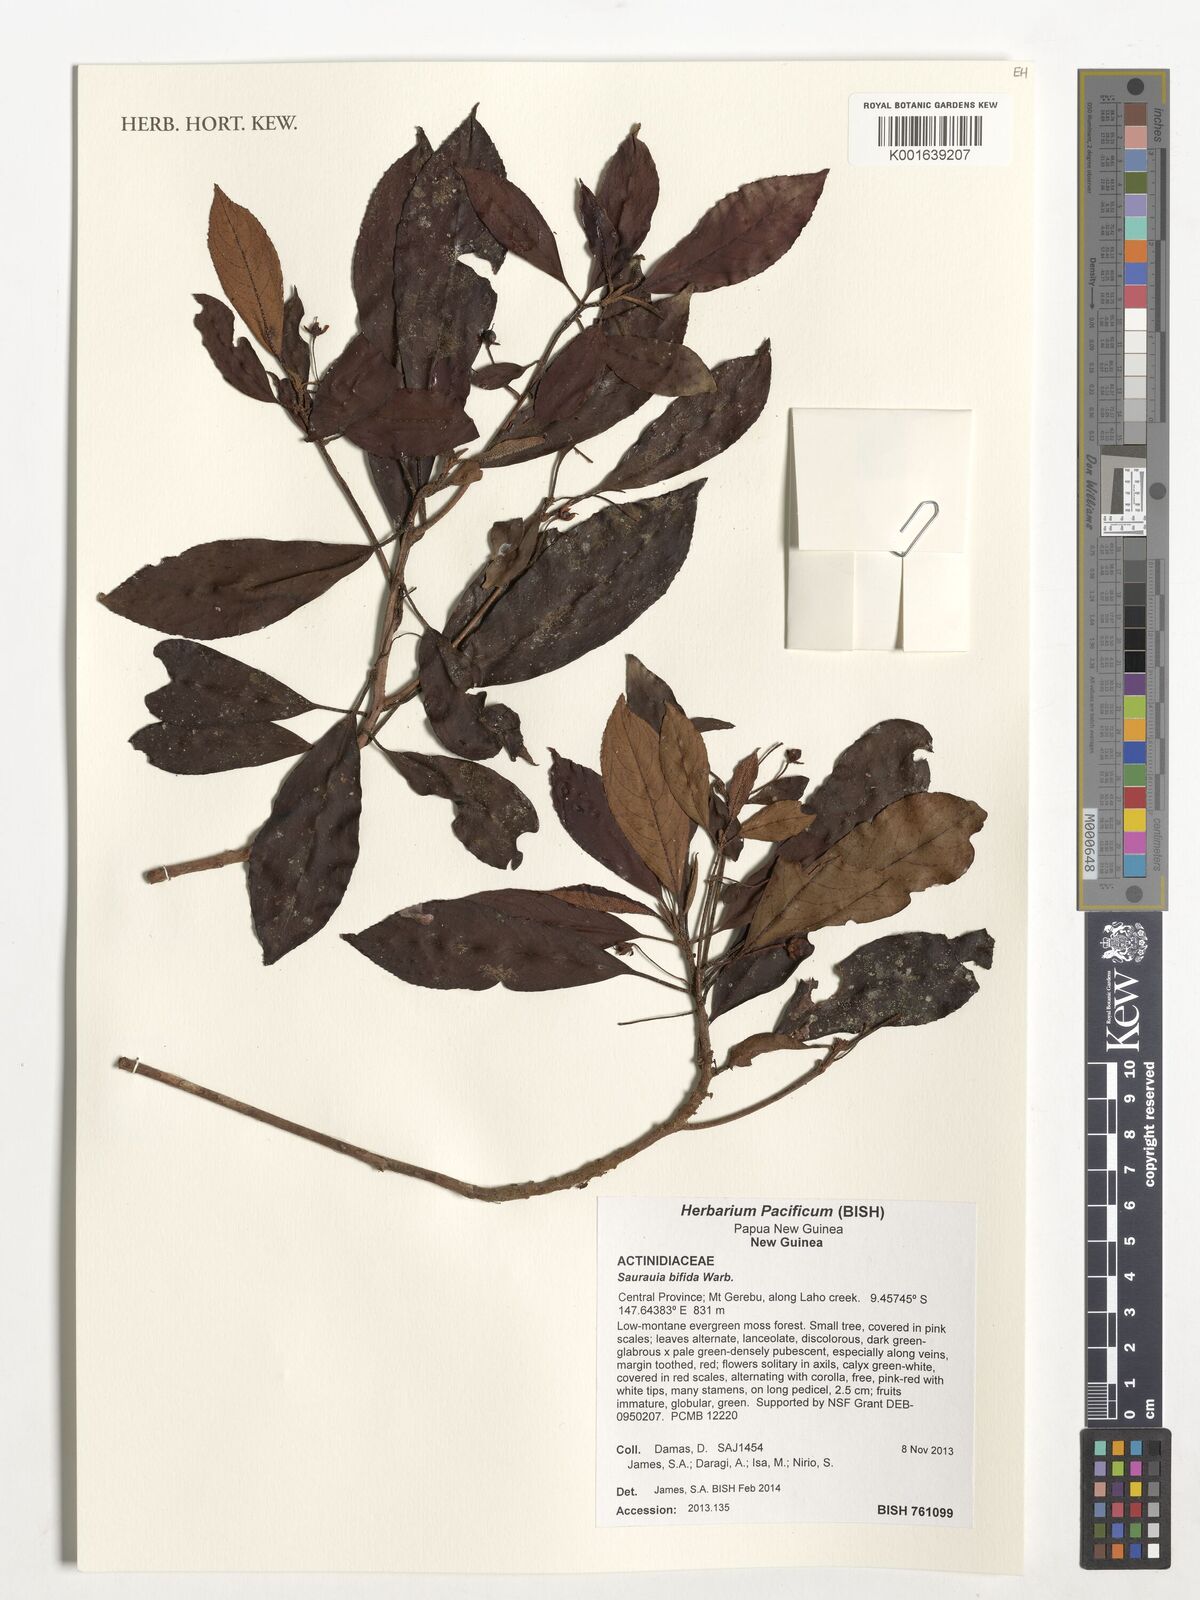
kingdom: Plantae
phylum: Tracheophyta
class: Magnoliopsida
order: Ericales
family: Actinidiaceae
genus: Saurauia
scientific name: Saurauia bifida
